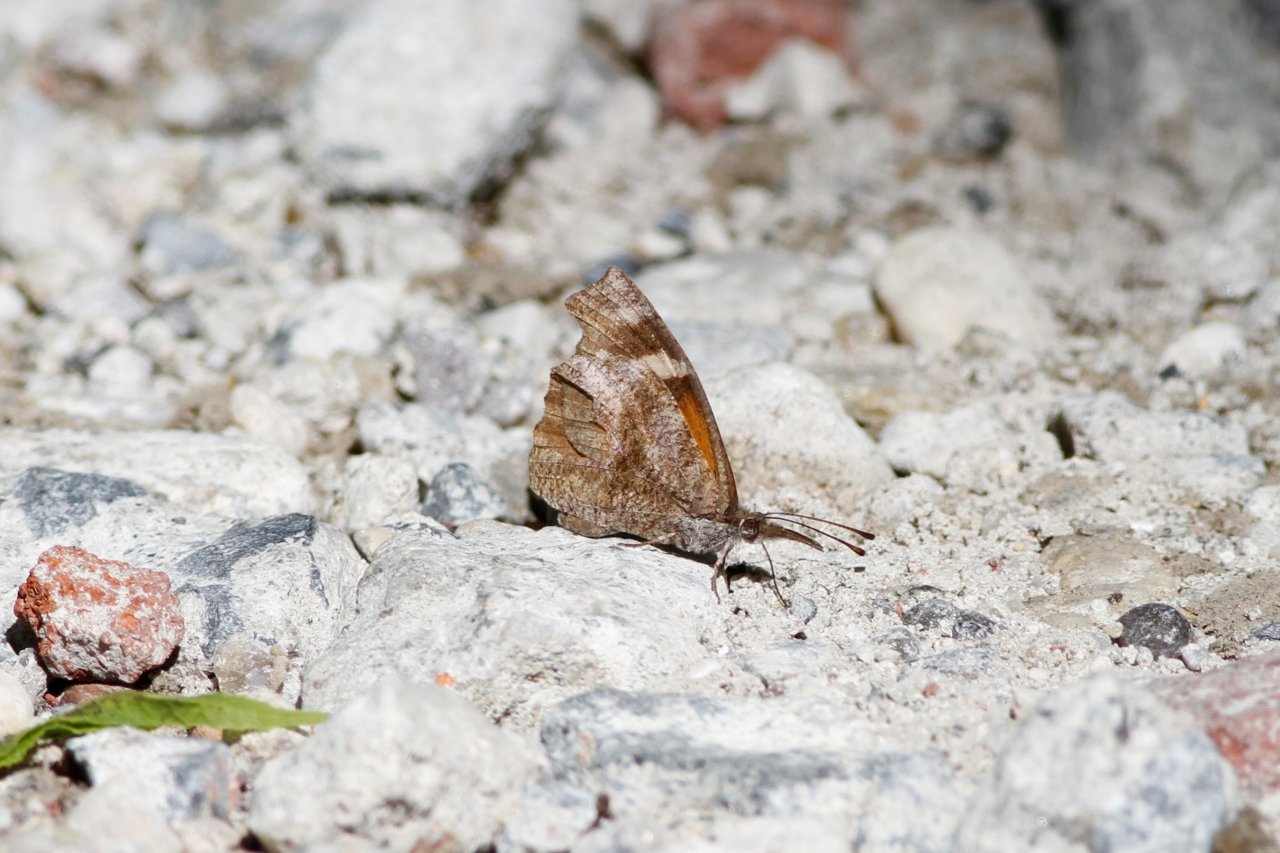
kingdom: Animalia
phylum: Arthropoda
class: Insecta
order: Lepidoptera
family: Nymphalidae
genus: Libytheana
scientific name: Libytheana carinenta
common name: American Snout
